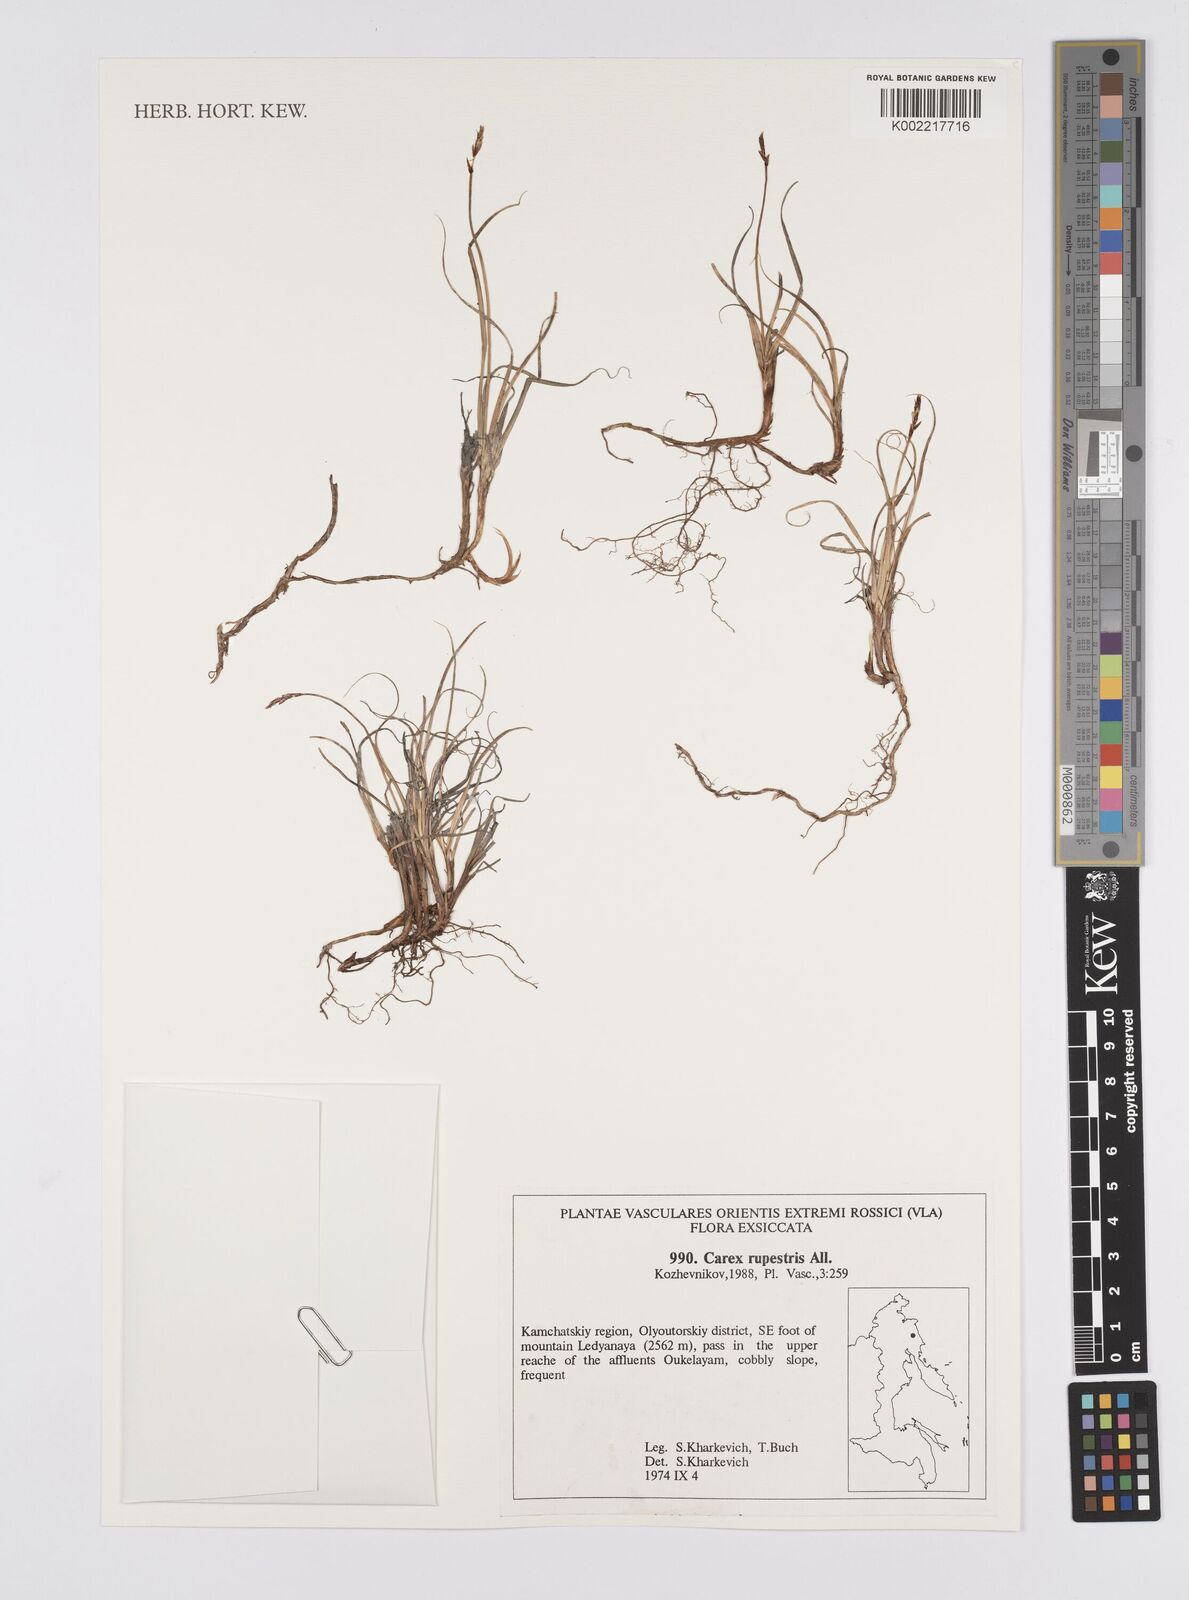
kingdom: Plantae
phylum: Tracheophyta
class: Liliopsida
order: Poales
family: Cyperaceae
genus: Carex
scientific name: Carex rupestris
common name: Rock sedge
